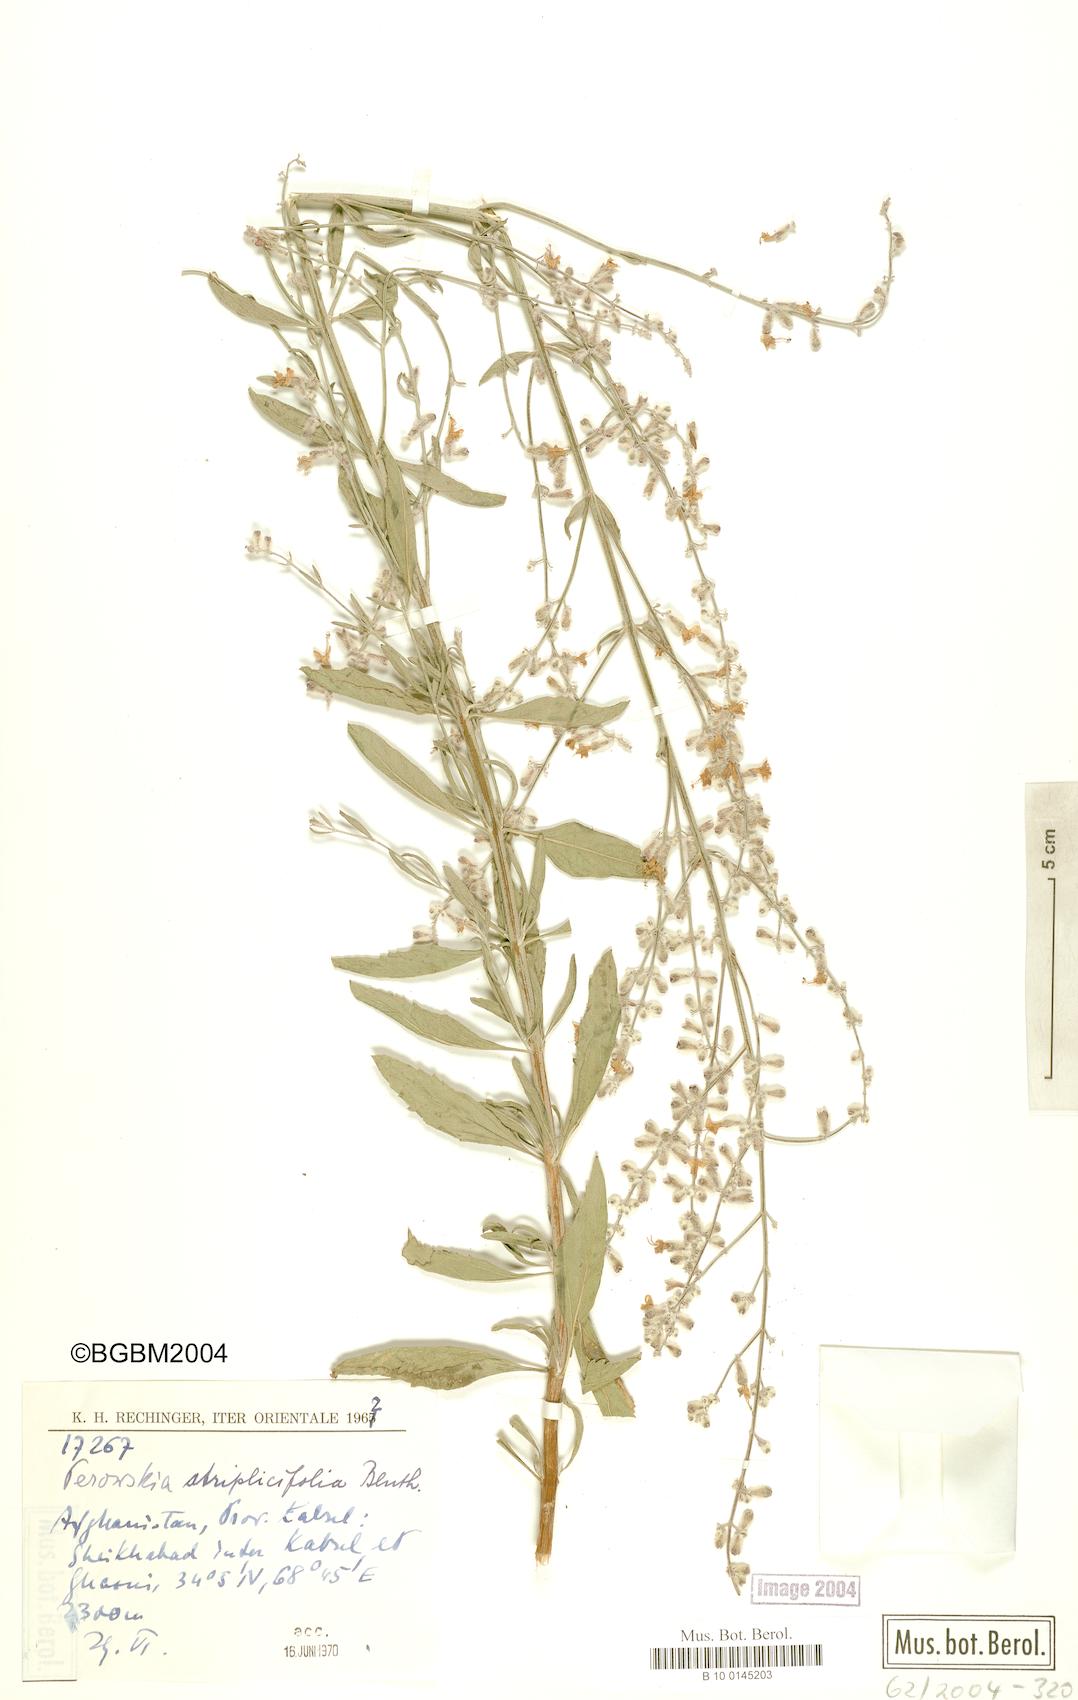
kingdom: Plantae
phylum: Tracheophyta
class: Magnoliopsida
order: Lamiales
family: Lamiaceae
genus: Salvia
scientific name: Salvia yangii
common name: Russian sage
